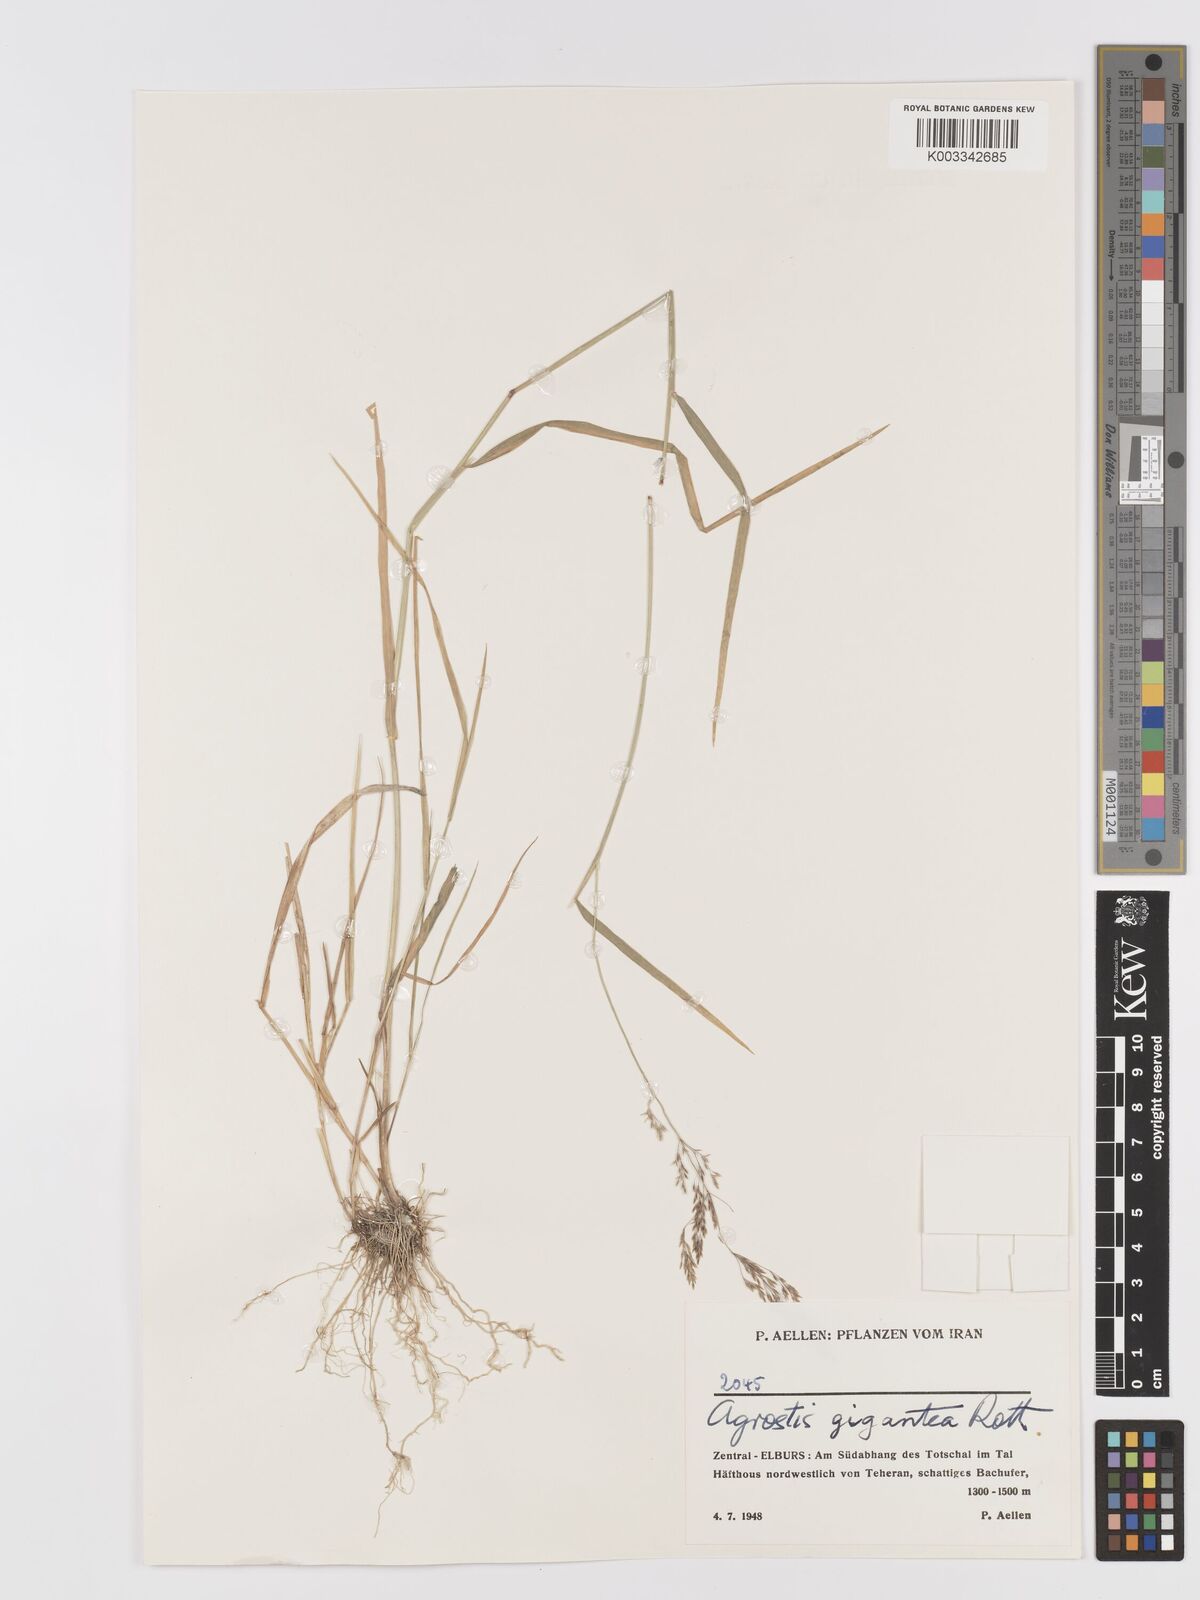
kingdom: Plantae
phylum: Tracheophyta
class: Liliopsida
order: Poales
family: Poaceae
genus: Agrostis
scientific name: Agrostis gigantea
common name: Black bent
